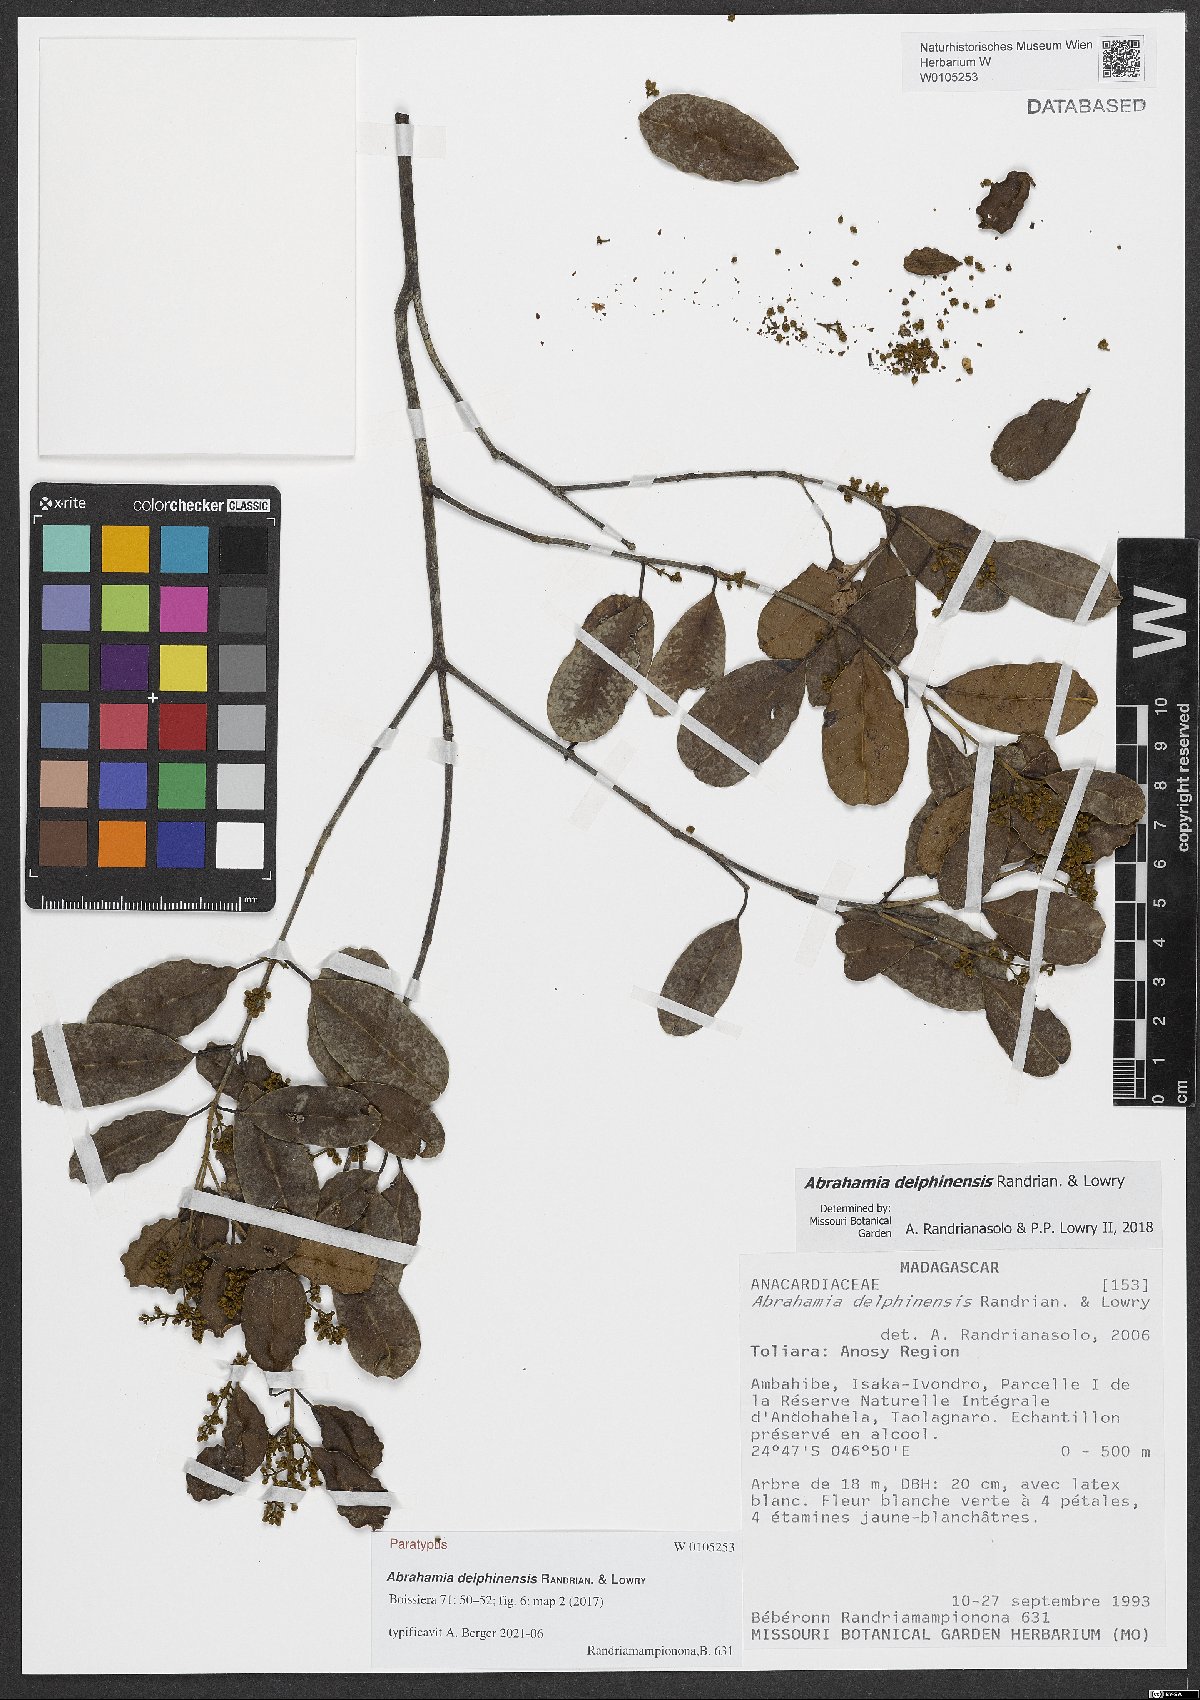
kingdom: Plantae
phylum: Tracheophyta
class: Magnoliopsida
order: Sapindales
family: Anacardiaceae
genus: Abrahamia
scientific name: Abrahamia delphinensis
